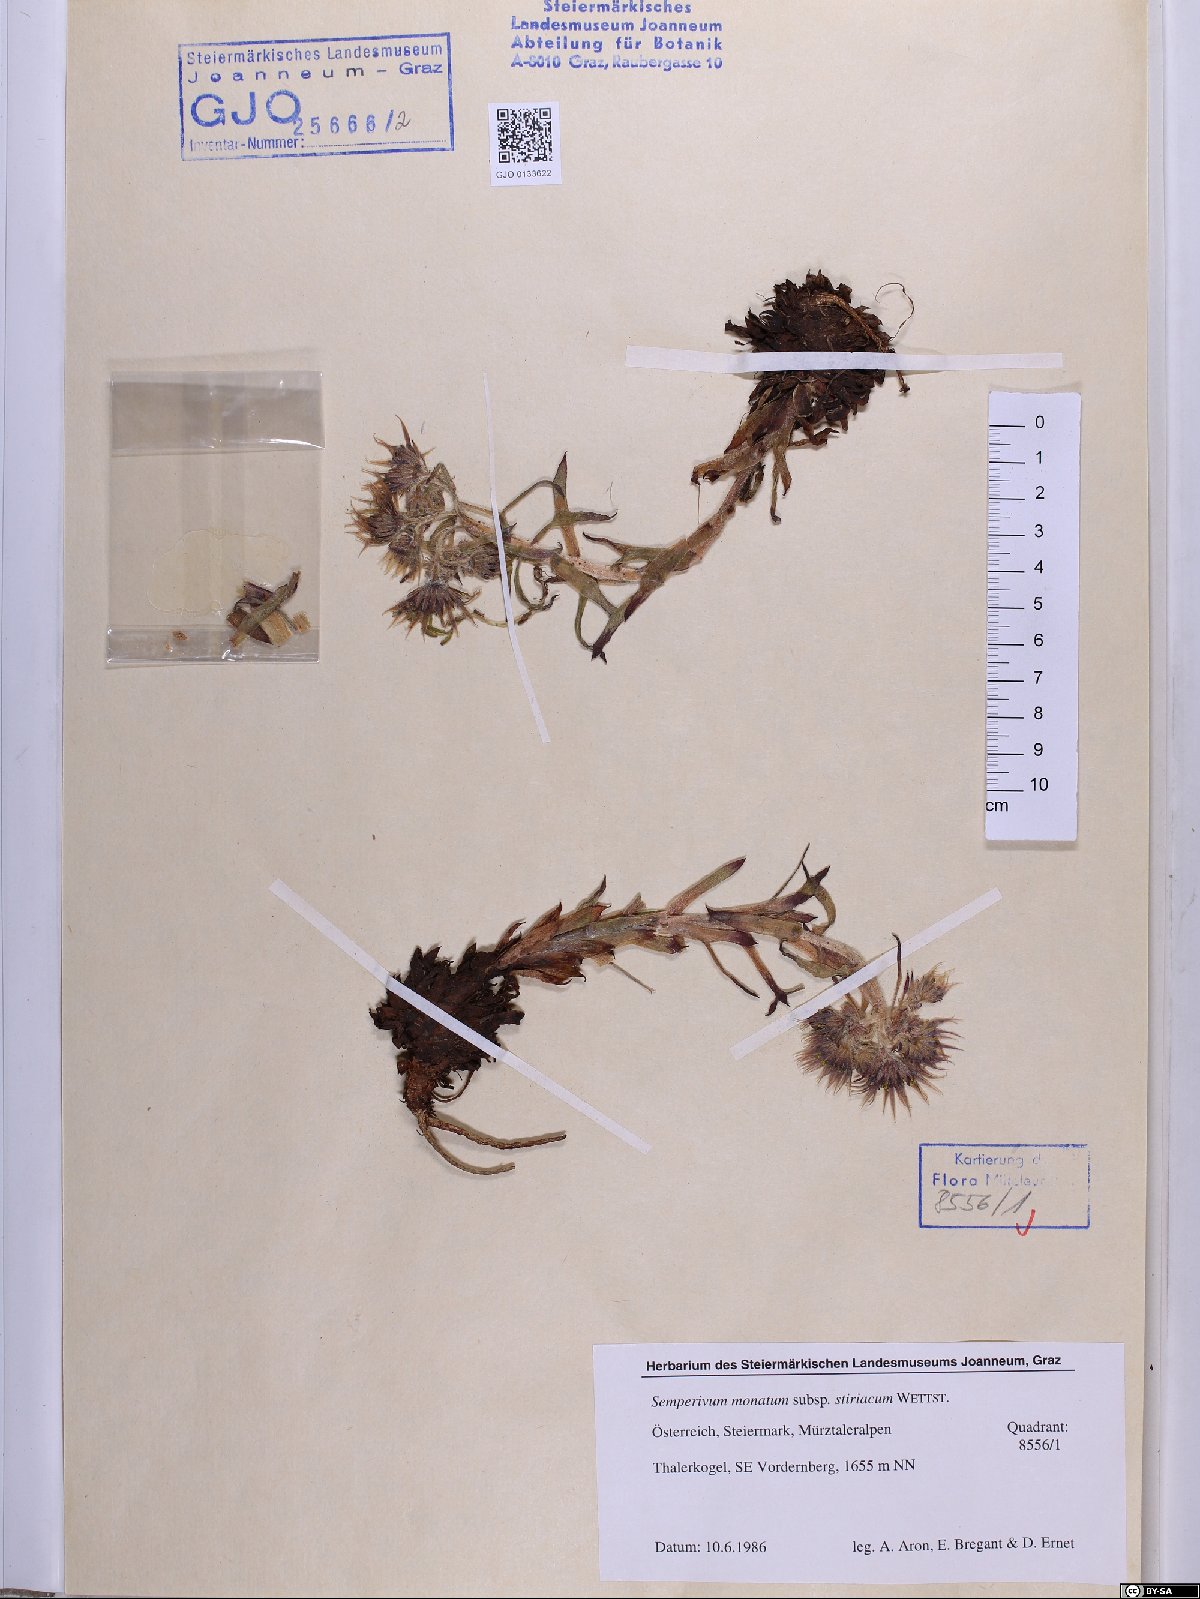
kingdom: Plantae
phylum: Tracheophyta
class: Magnoliopsida
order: Saxifragales
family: Crassulaceae
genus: Sempervivum
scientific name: Sempervivum montanum
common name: Mountain house-leek
